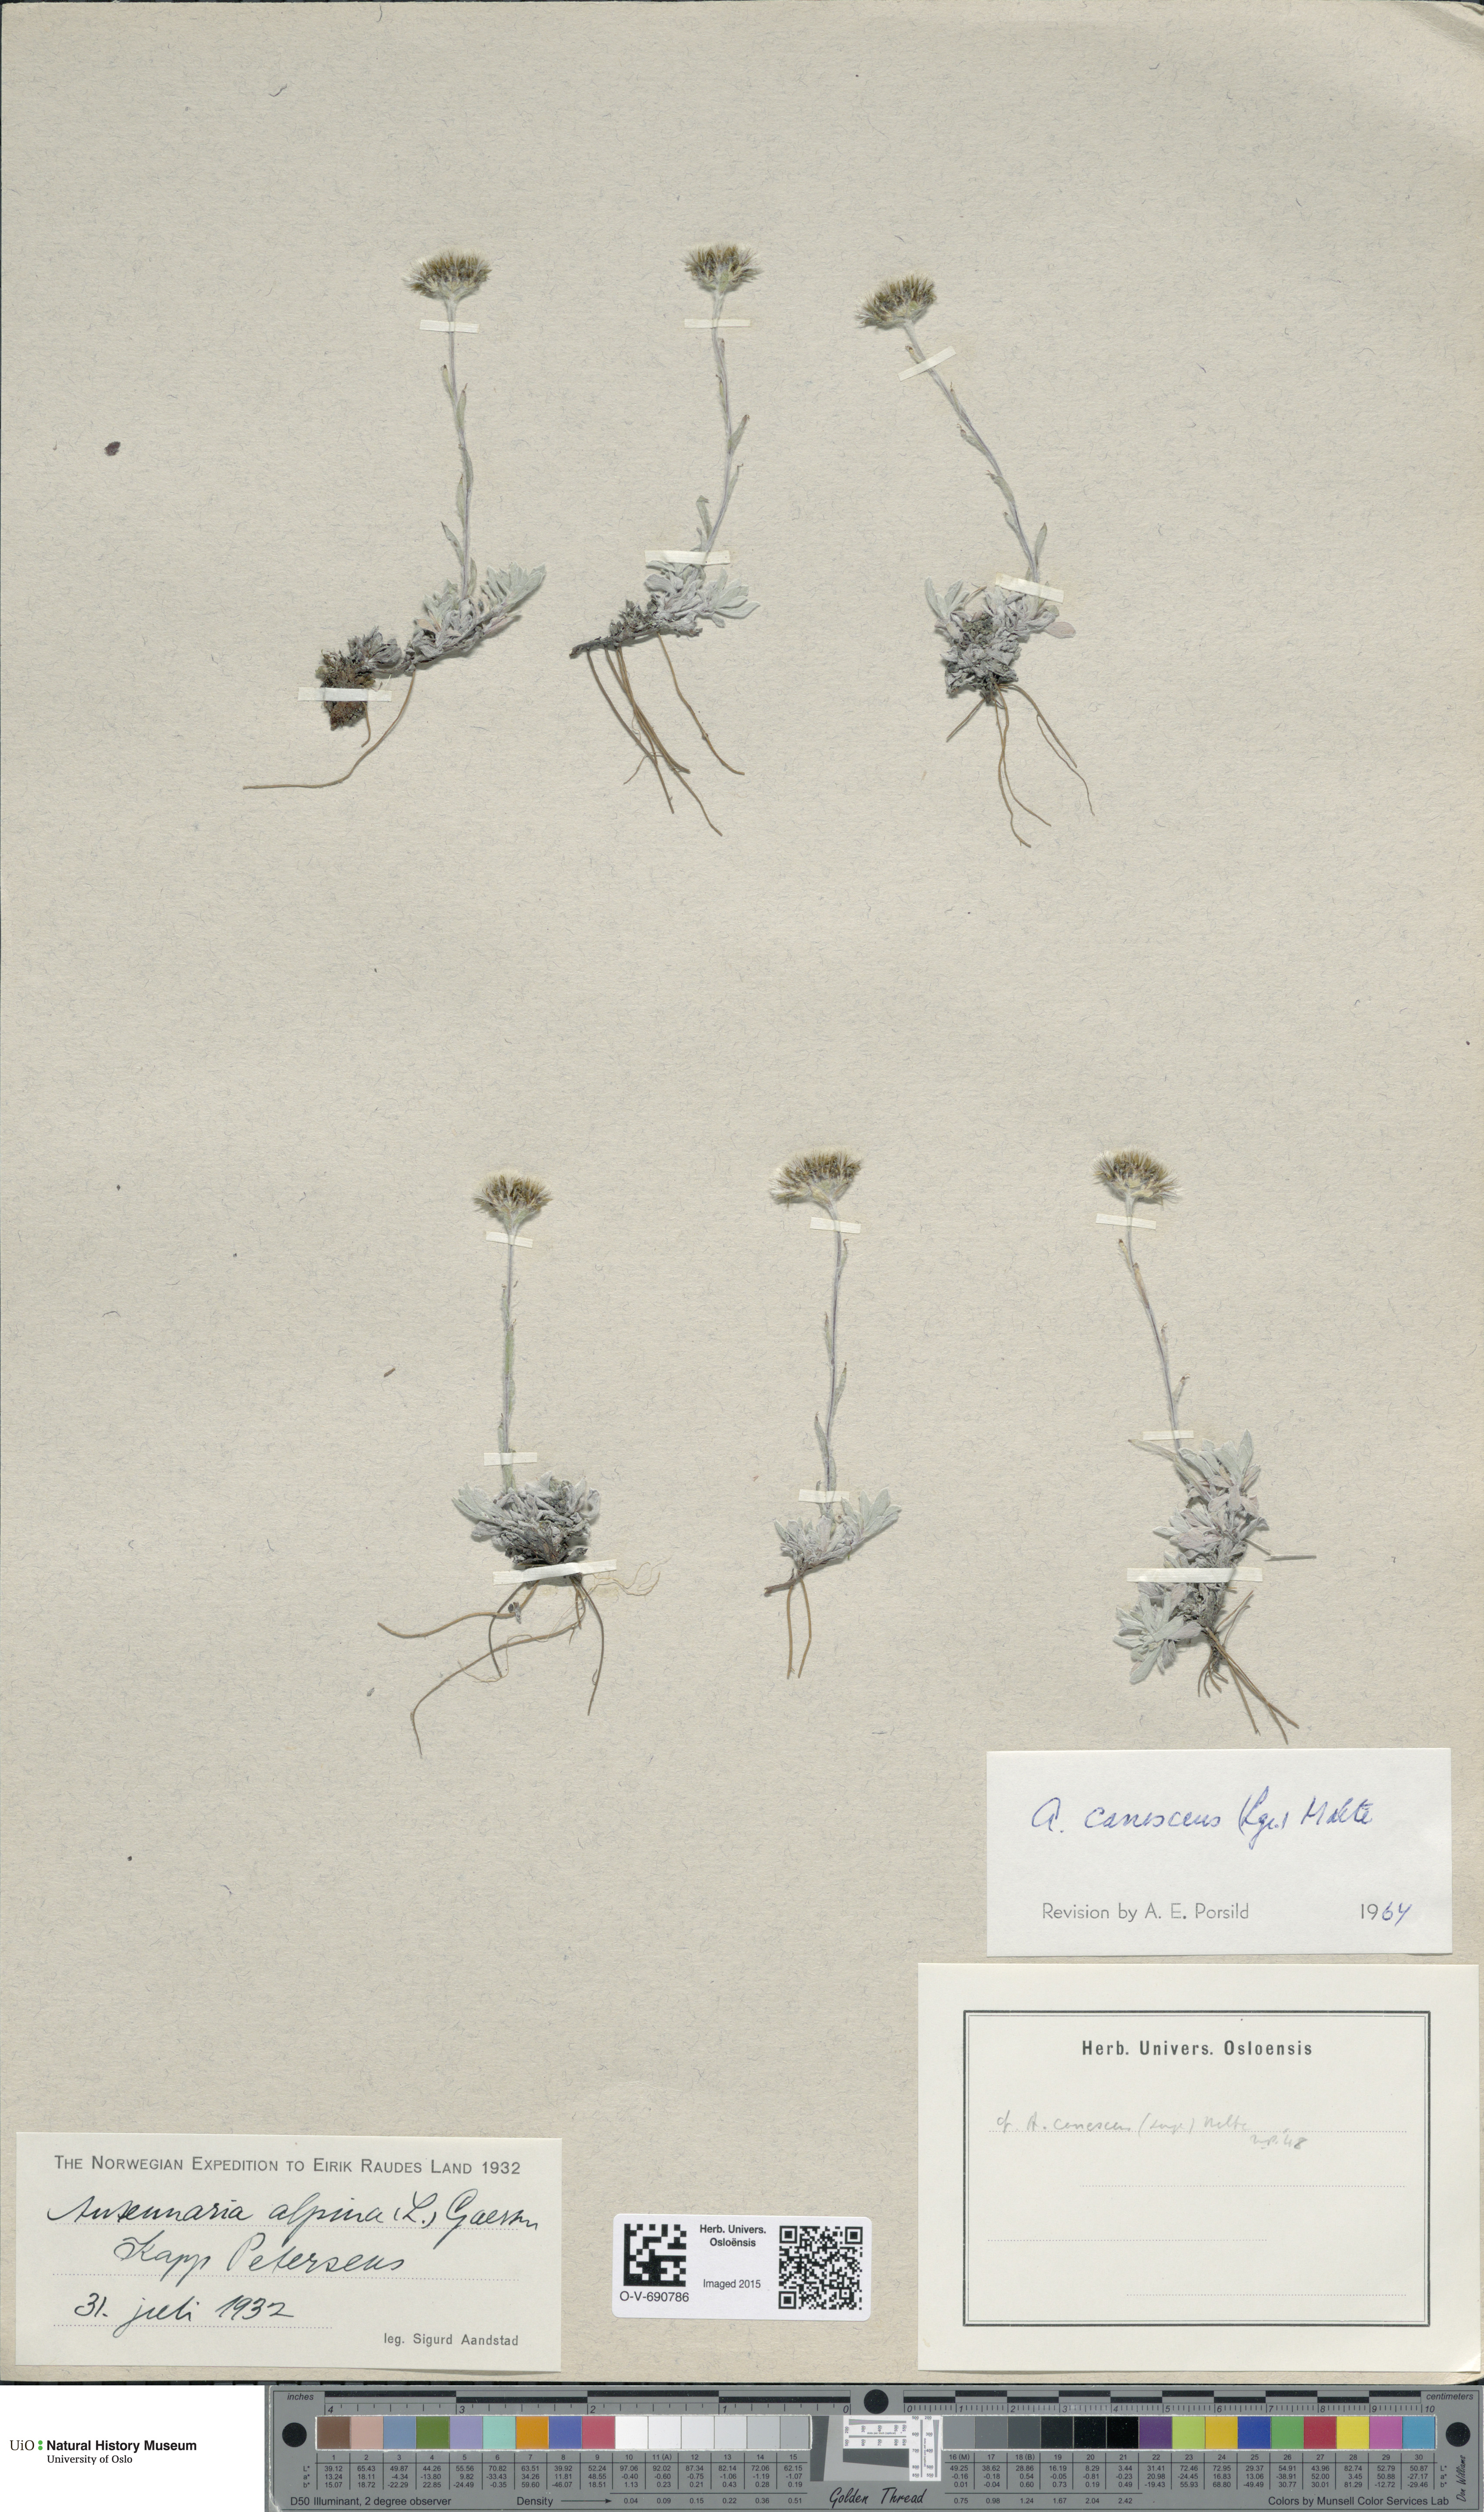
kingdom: Plantae
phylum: Tracheophyta
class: Magnoliopsida
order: Asterales
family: Asteraceae
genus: Antennaria
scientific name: Antennaria canescens
